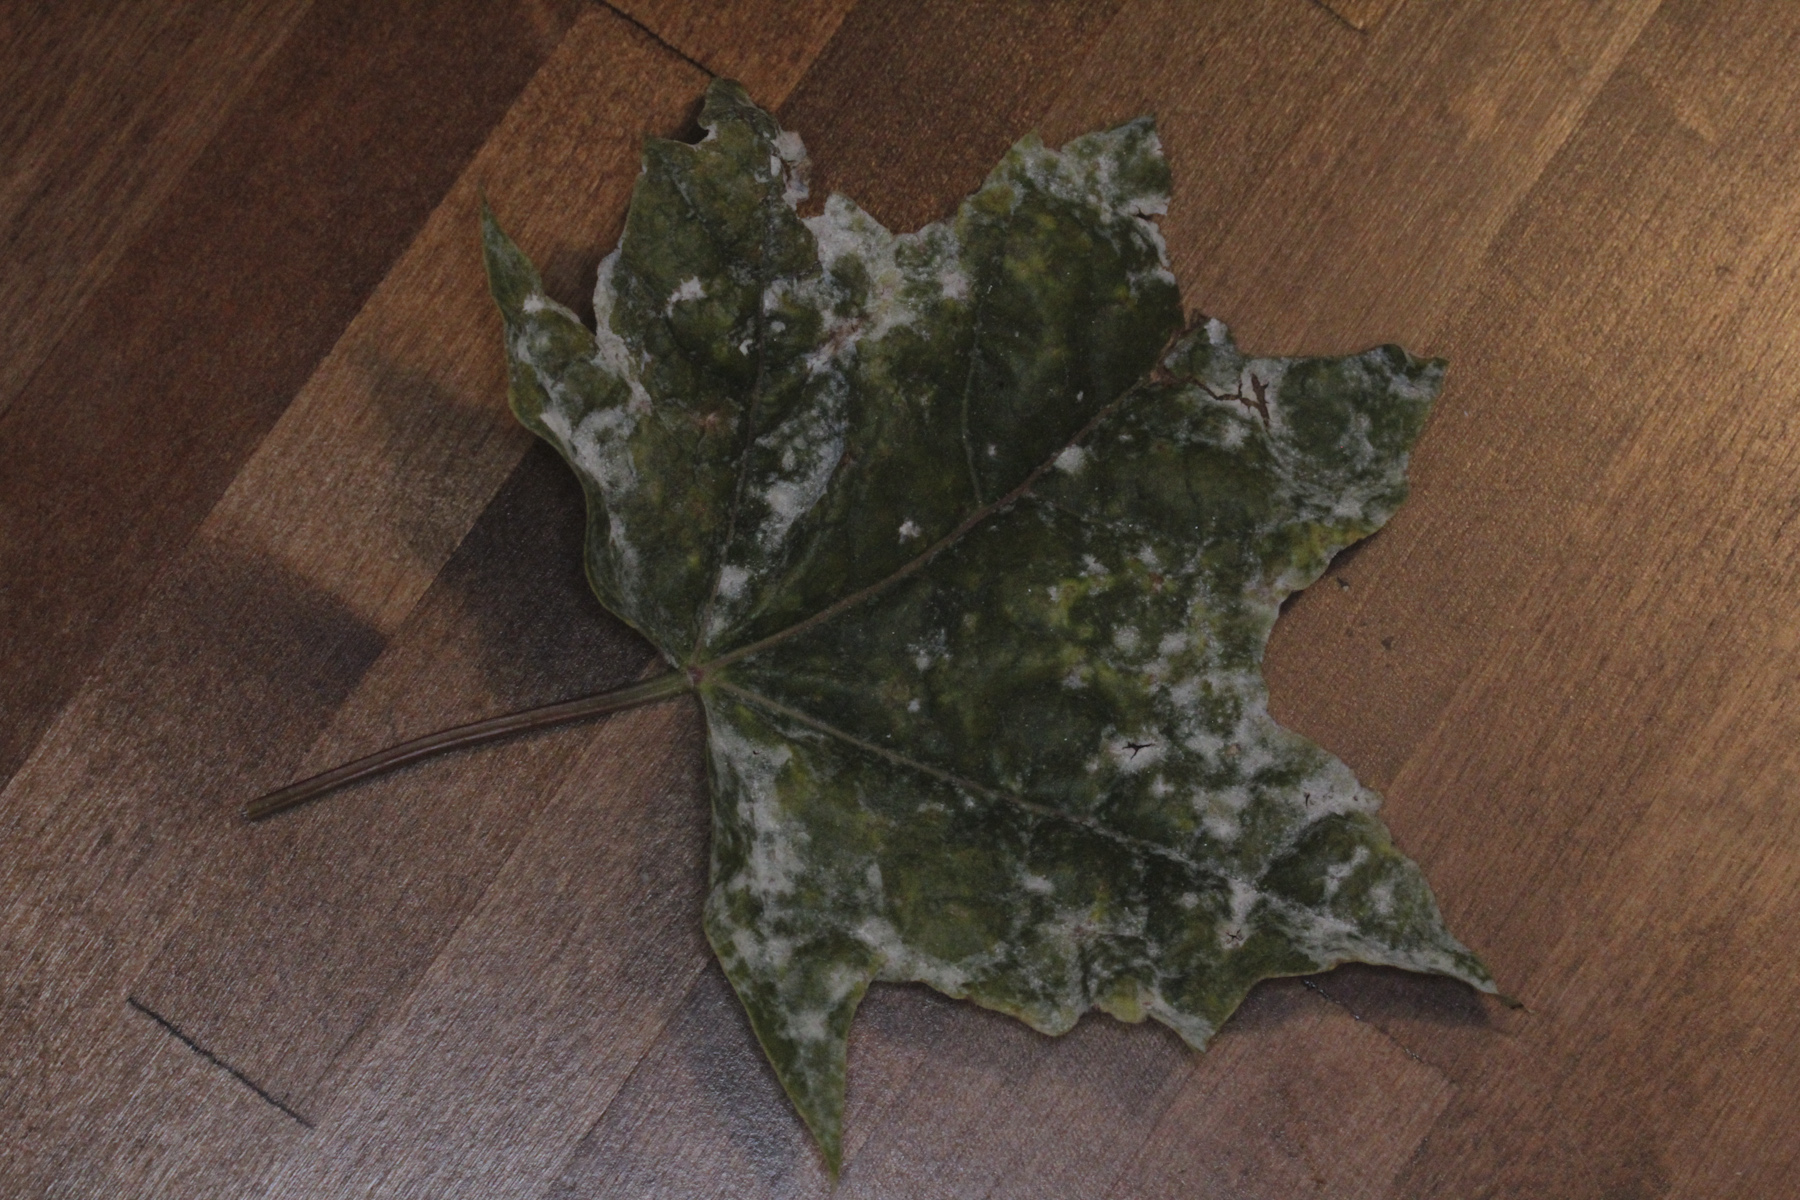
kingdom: Fungi
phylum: Ascomycota
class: Leotiomycetes
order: Helotiales
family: Erysiphaceae
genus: Sawadaea
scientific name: Sawadaea tulasnei
